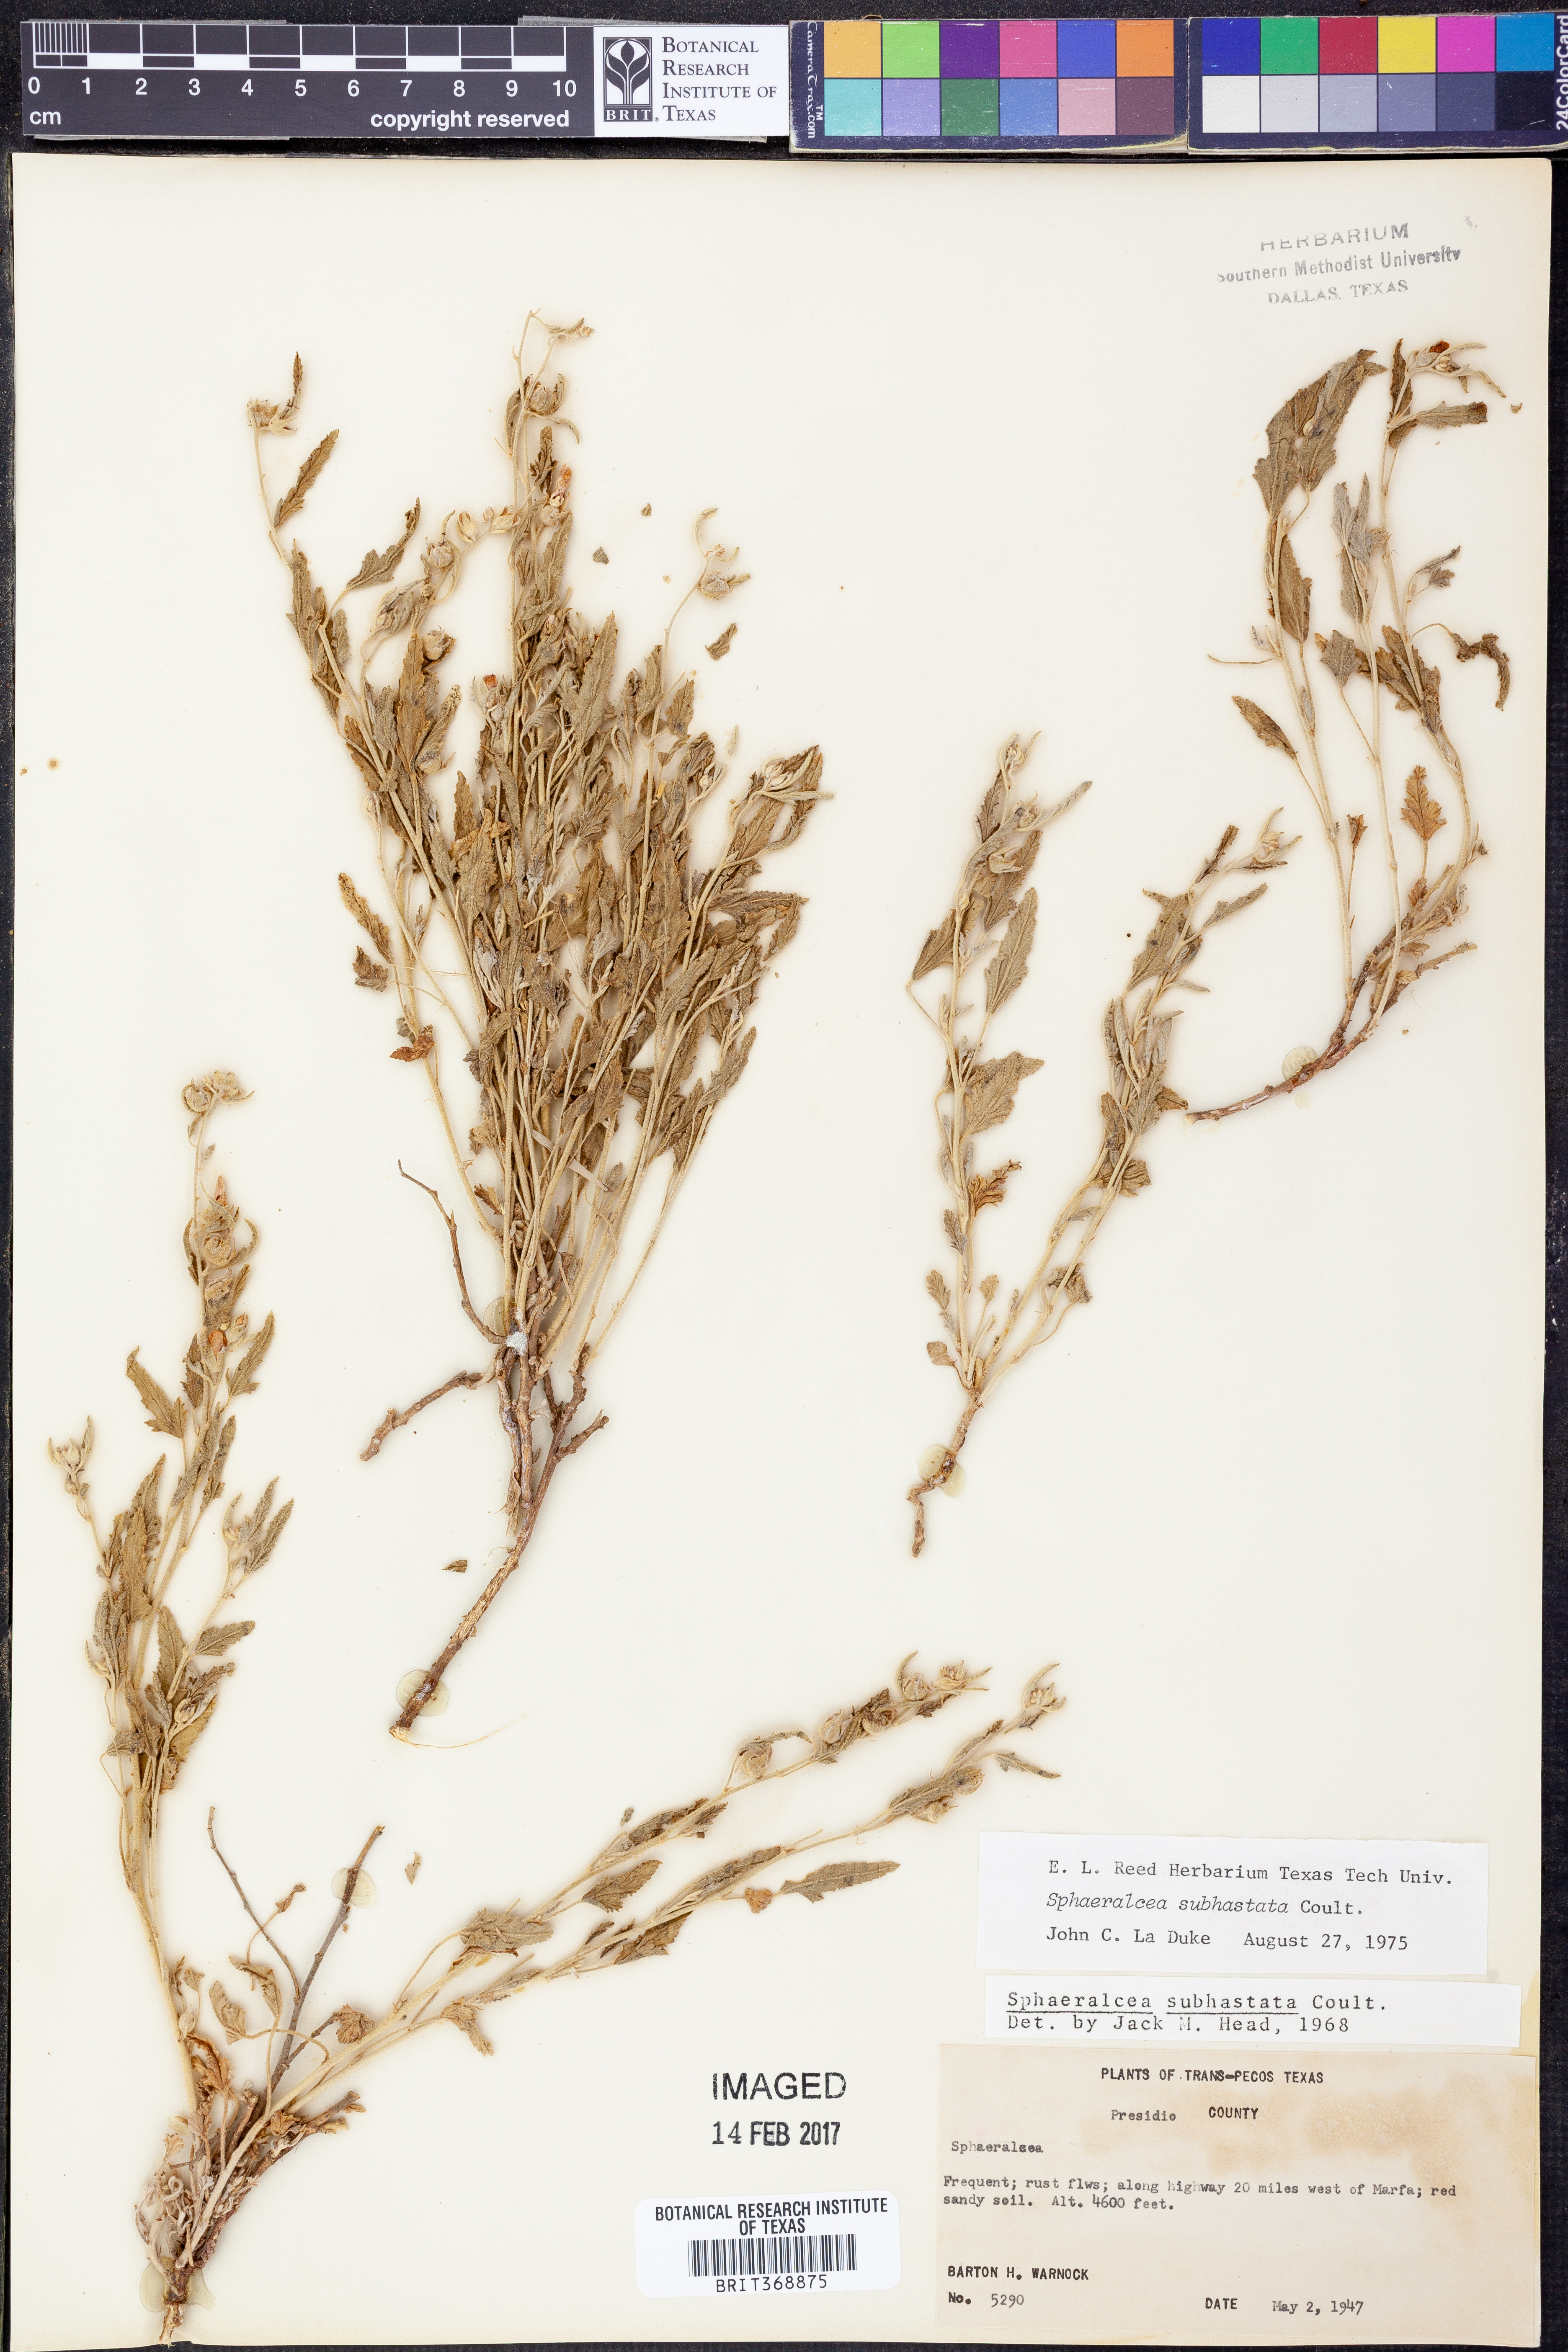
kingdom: Plantae
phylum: Tracheophyta
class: Magnoliopsida
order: Malvales
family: Malvaceae
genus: Sphaeralcea
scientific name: Sphaeralcea hastulata
